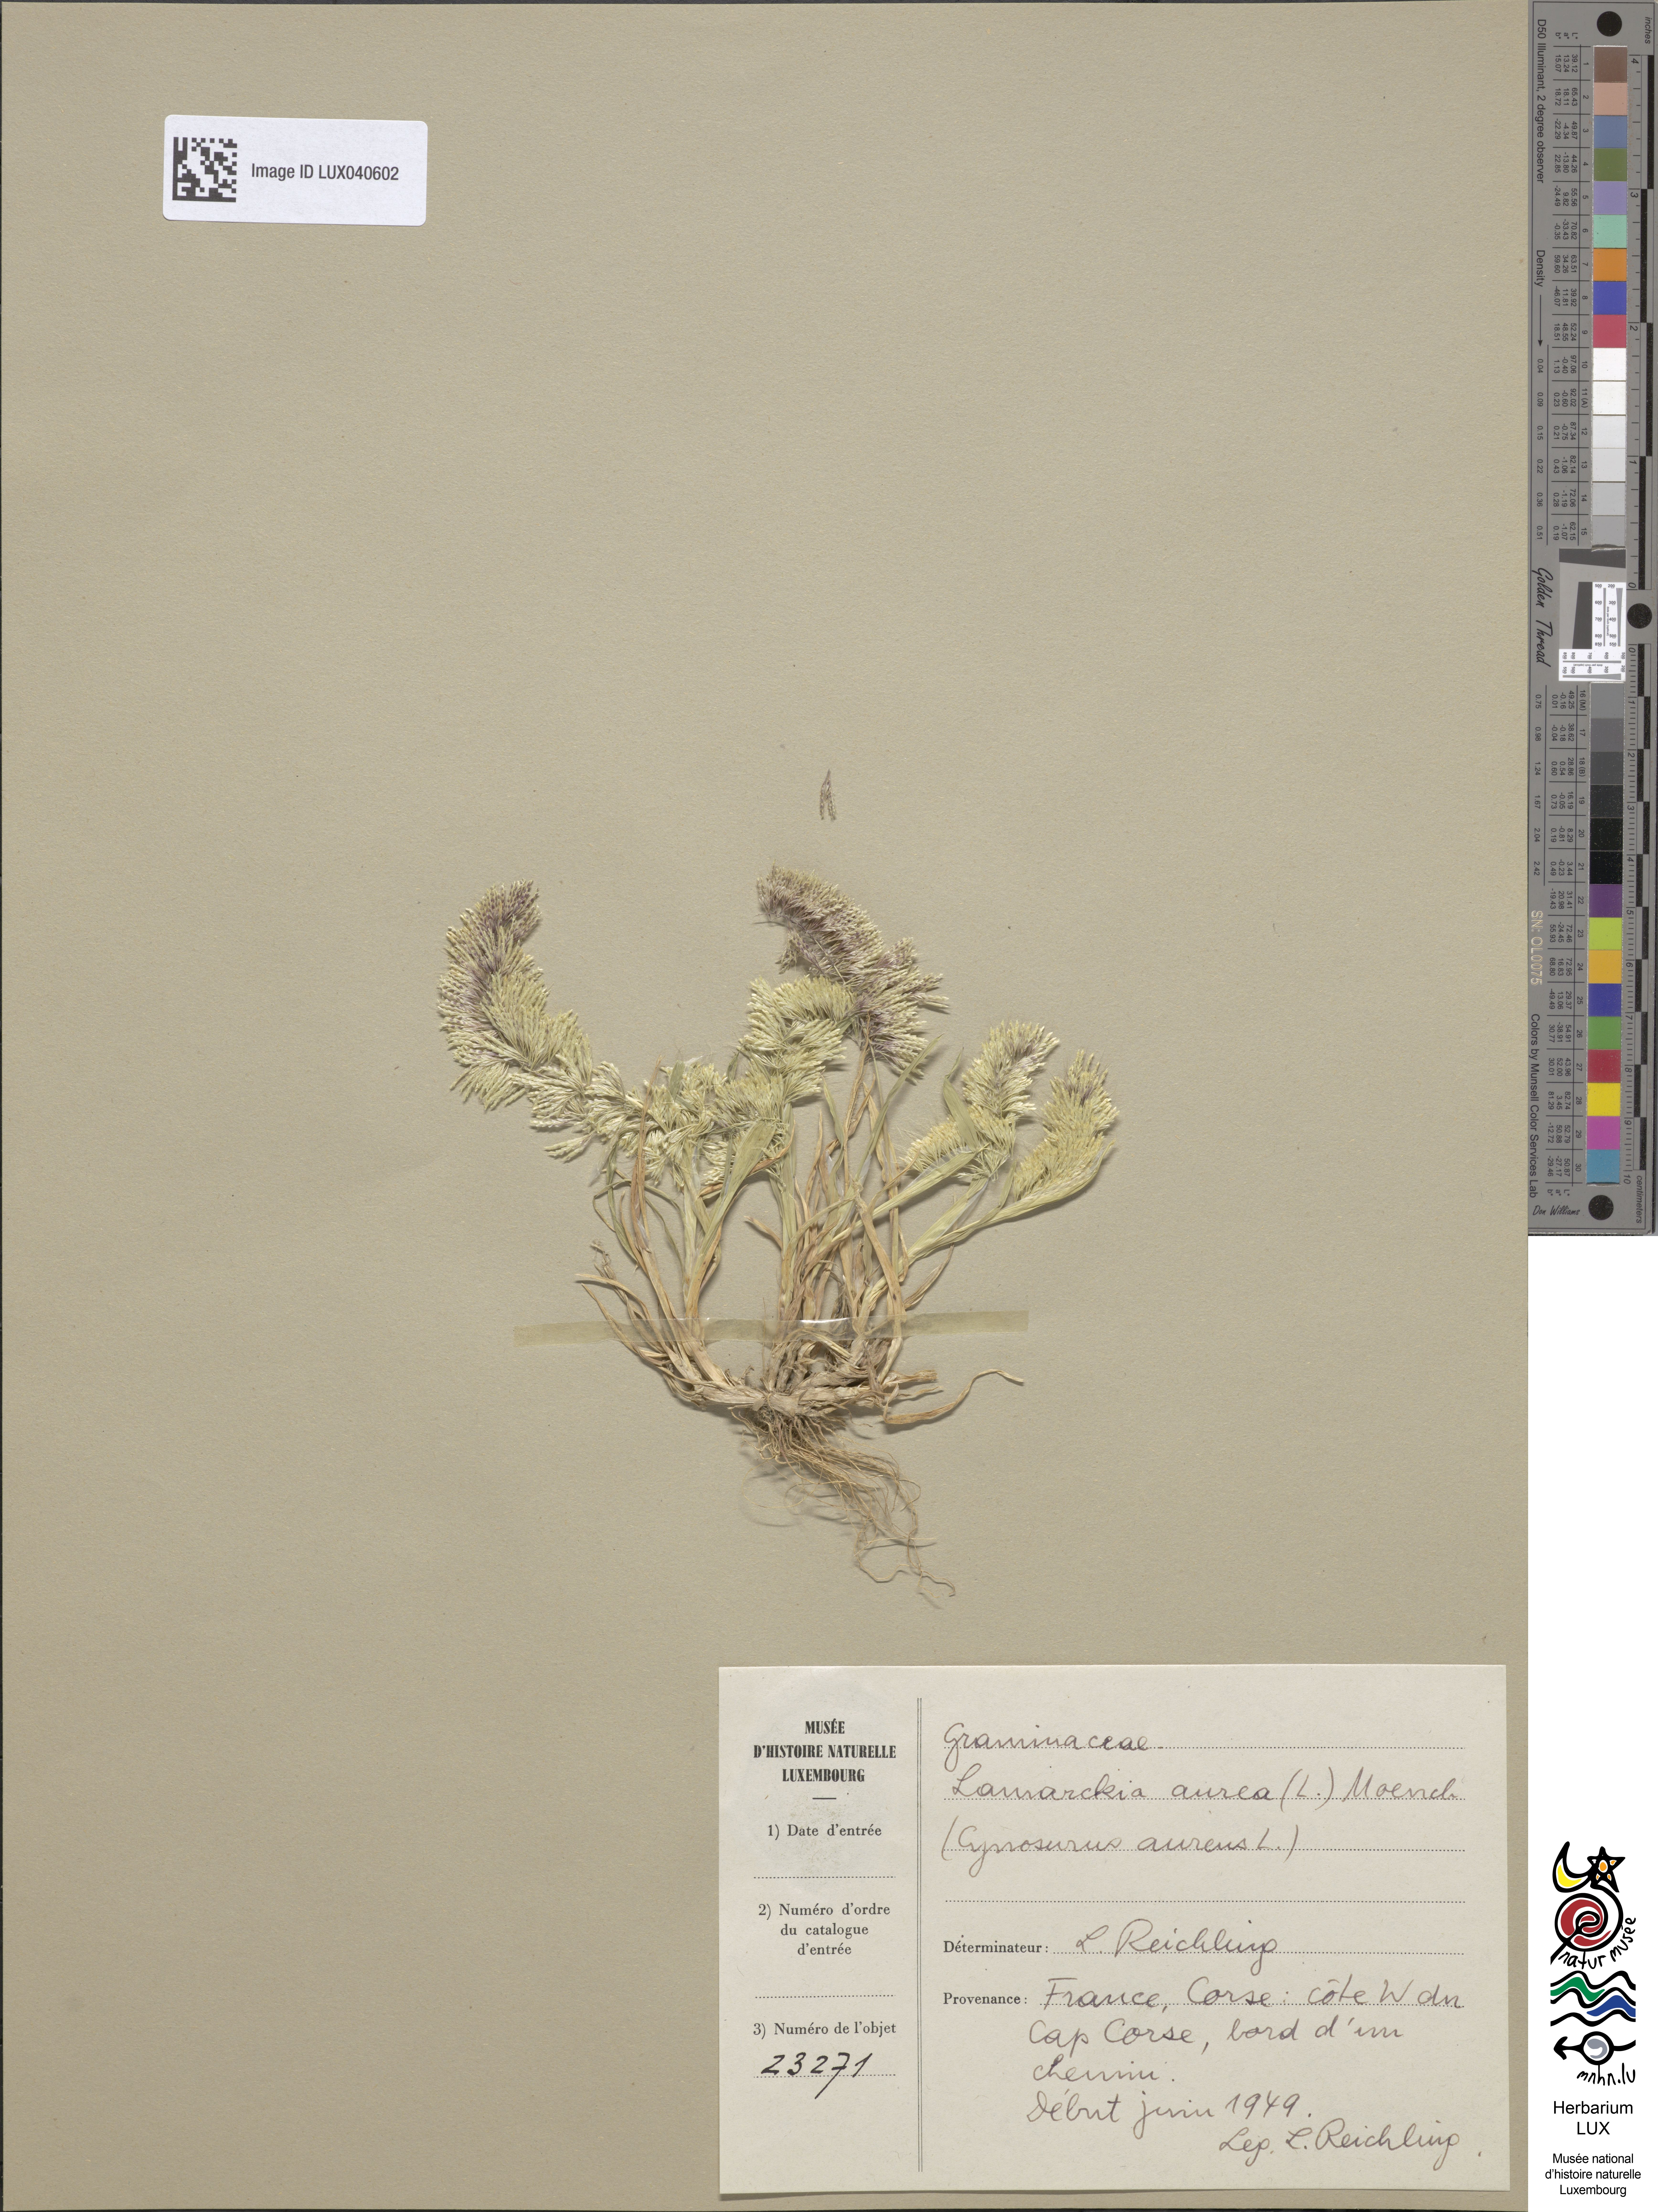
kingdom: Plantae
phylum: Tracheophyta
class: Liliopsida
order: Poales
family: Poaceae
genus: Lamarckia
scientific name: Lamarckia aurea
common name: Golden dog's-tail
